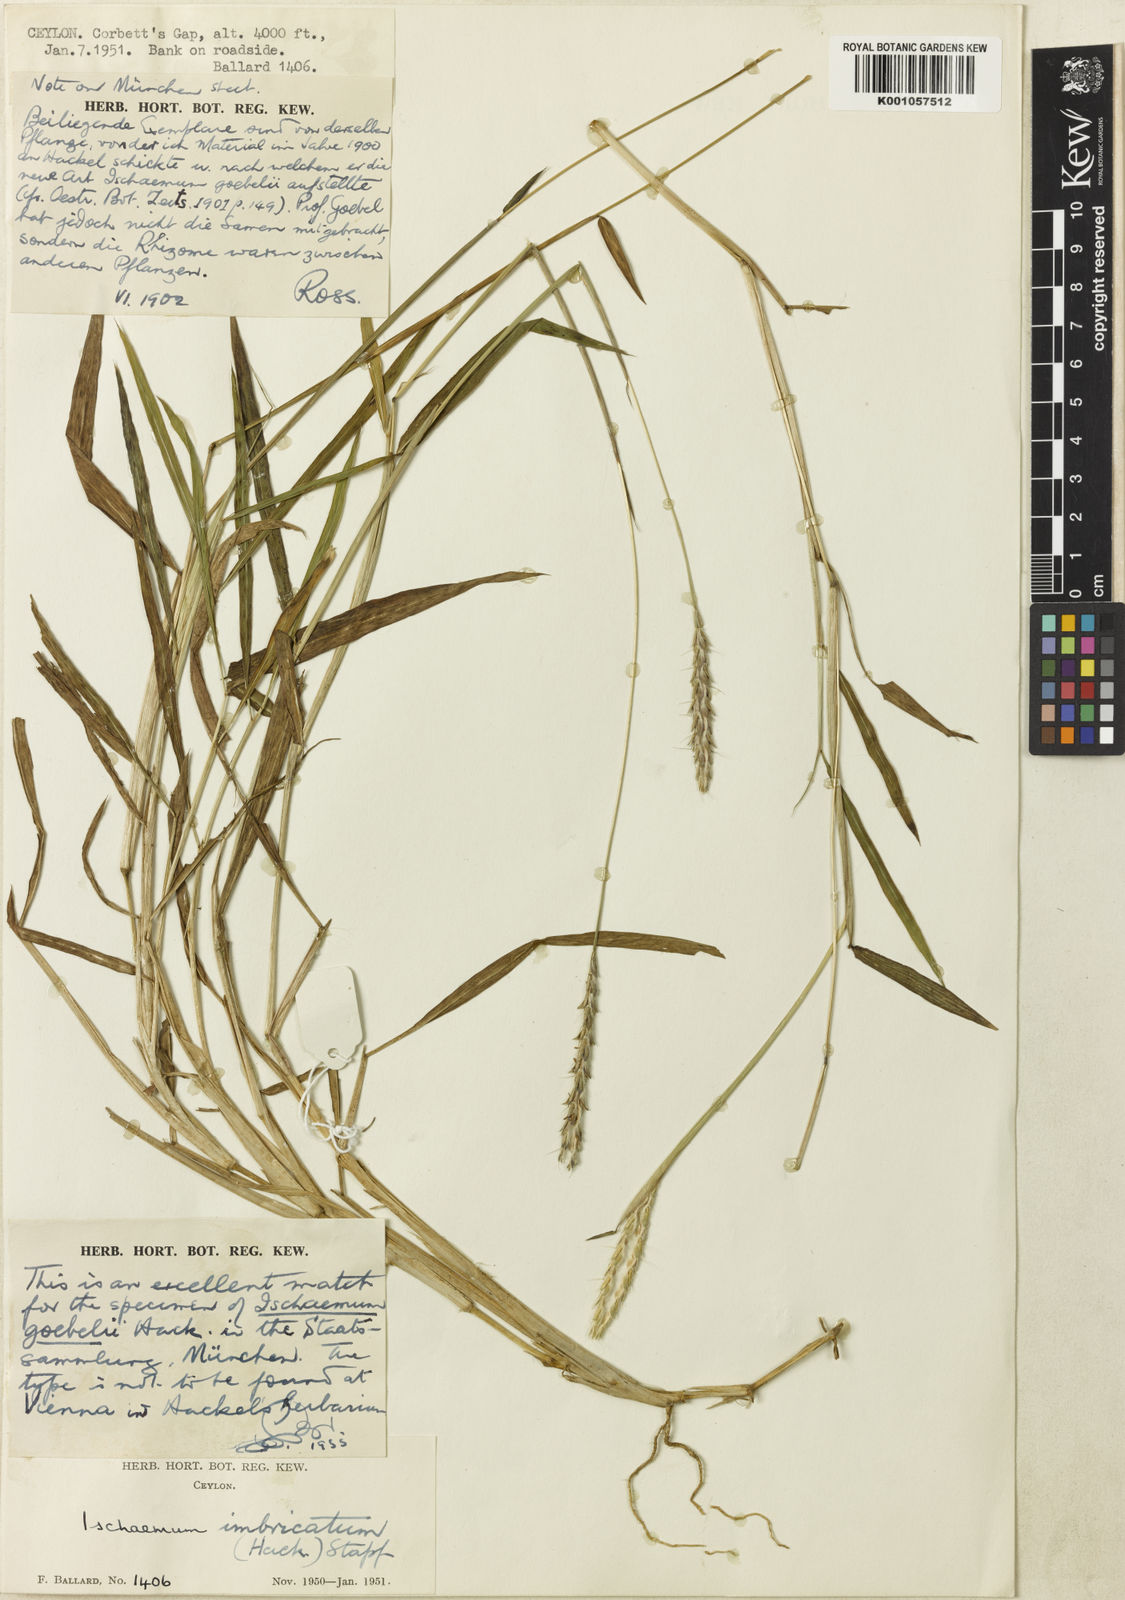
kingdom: Plantae
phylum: Tracheophyta
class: Liliopsida
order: Poales
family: Poaceae
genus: Ischaemum
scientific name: Ischaemum barbatum
